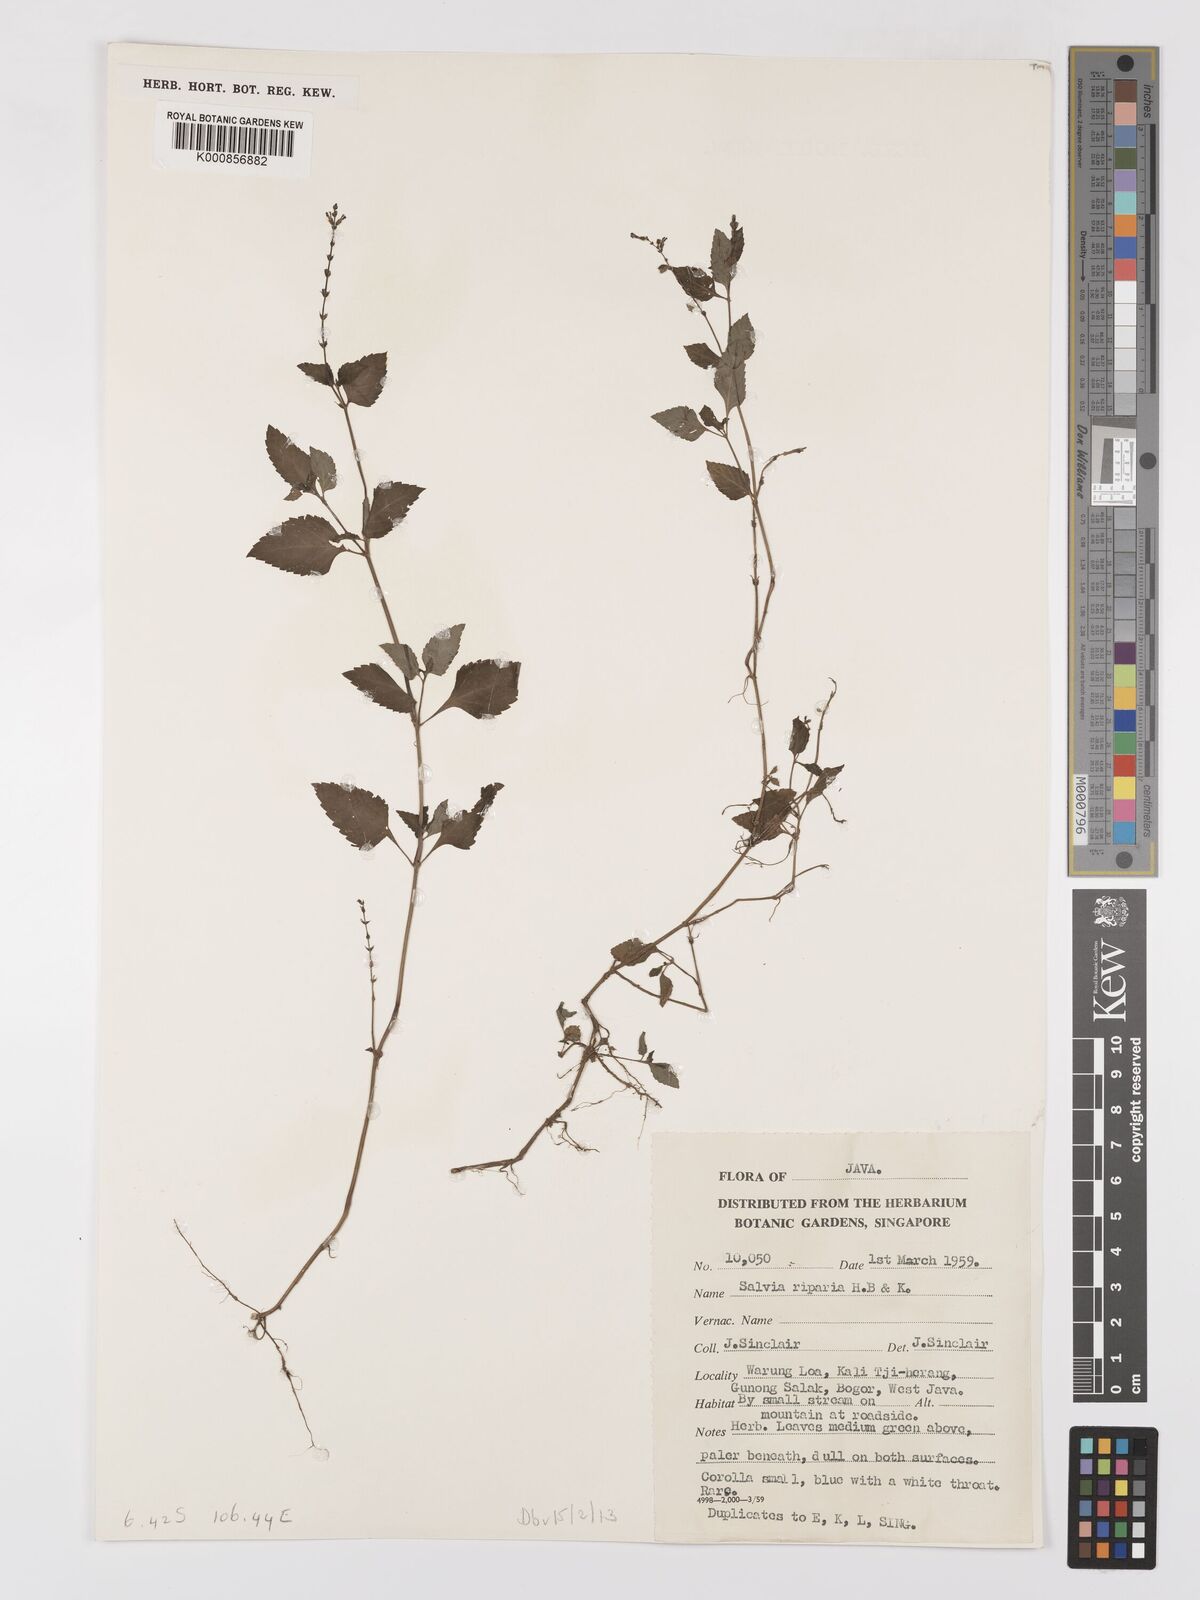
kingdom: Plantae
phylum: Tracheophyta
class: Magnoliopsida
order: Lamiales
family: Lamiaceae
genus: Salvia
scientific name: Salvia misella
